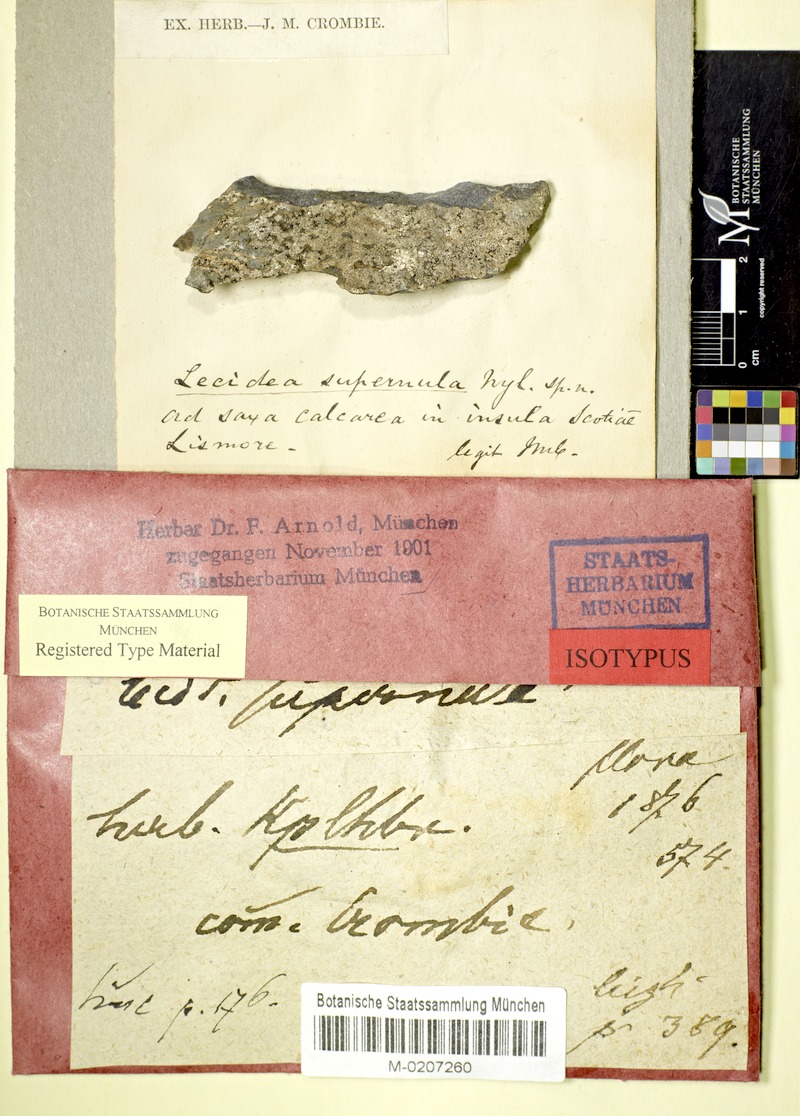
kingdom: Fungi
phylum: Ascomycota
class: Lecanoromycetes
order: Lecanorales
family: Ramalinaceae
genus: Kiliasia
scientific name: Kiliasia episema
